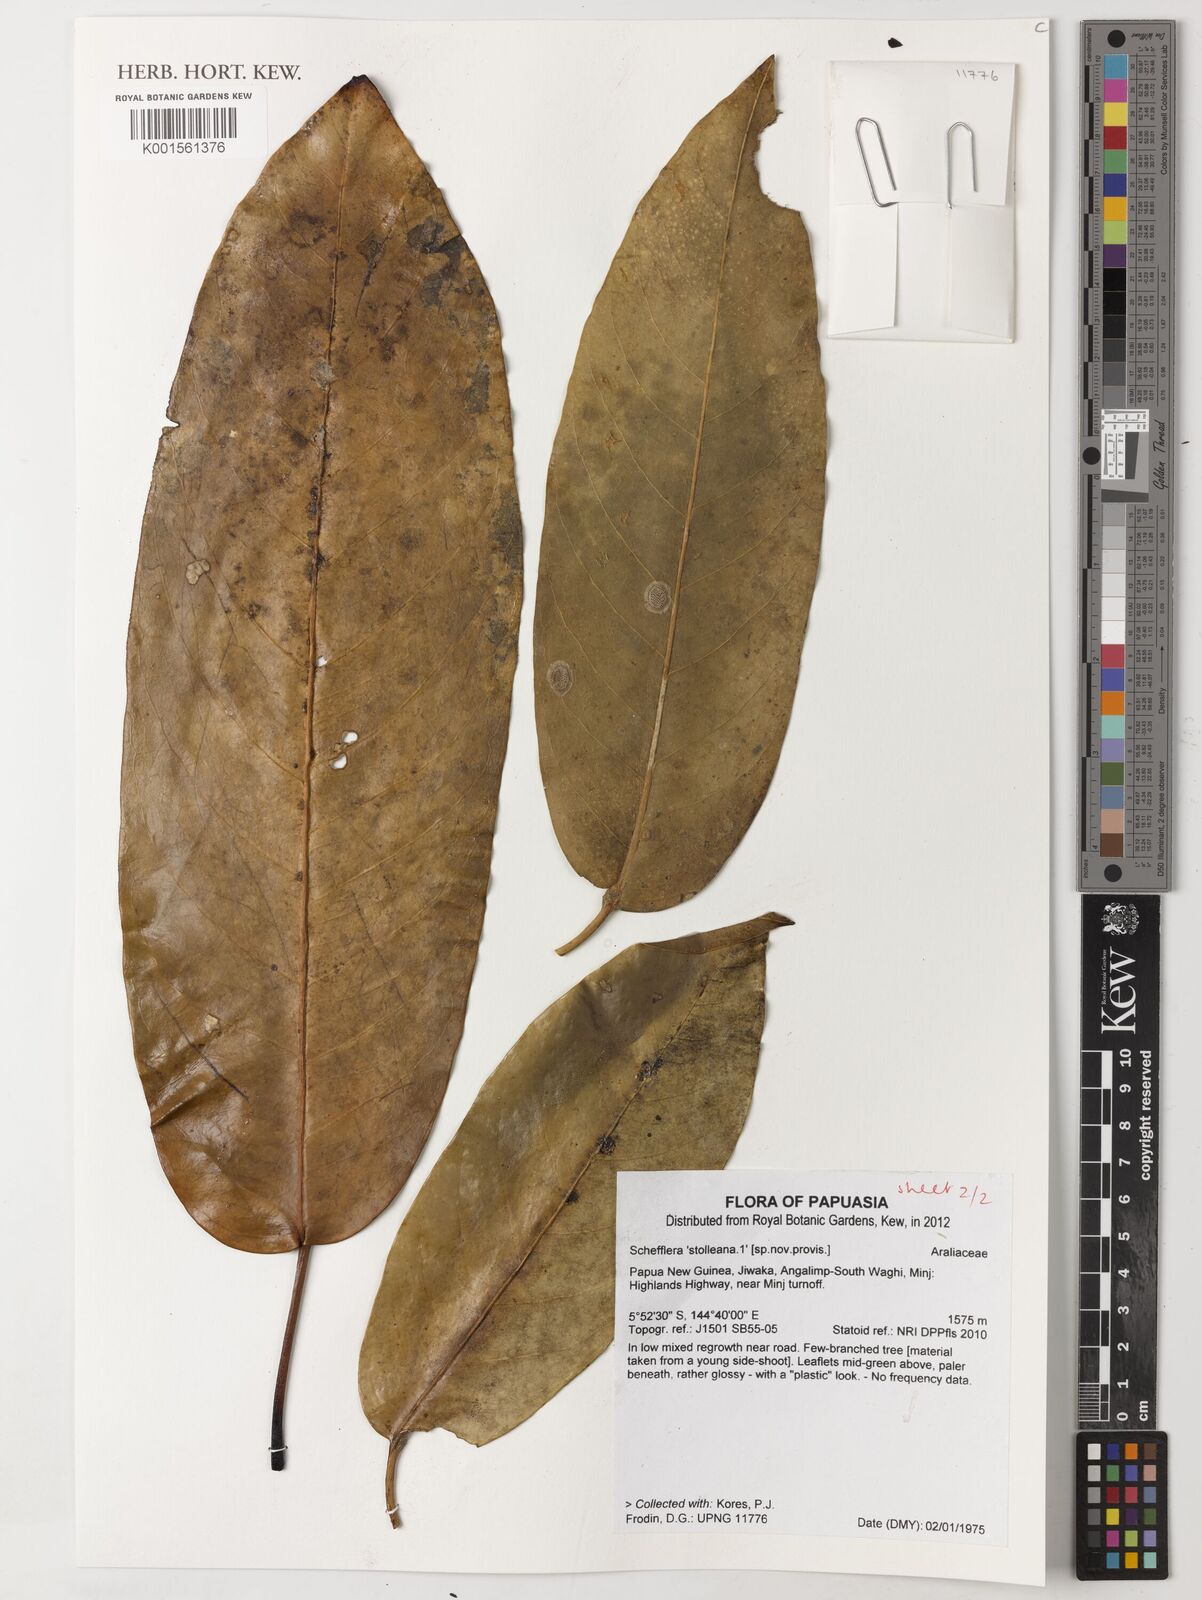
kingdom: Plantae
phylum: Tracheophyta
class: Magnoliopsida
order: Apiales
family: Araliaceae
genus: Schefflera
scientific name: Schefflera
